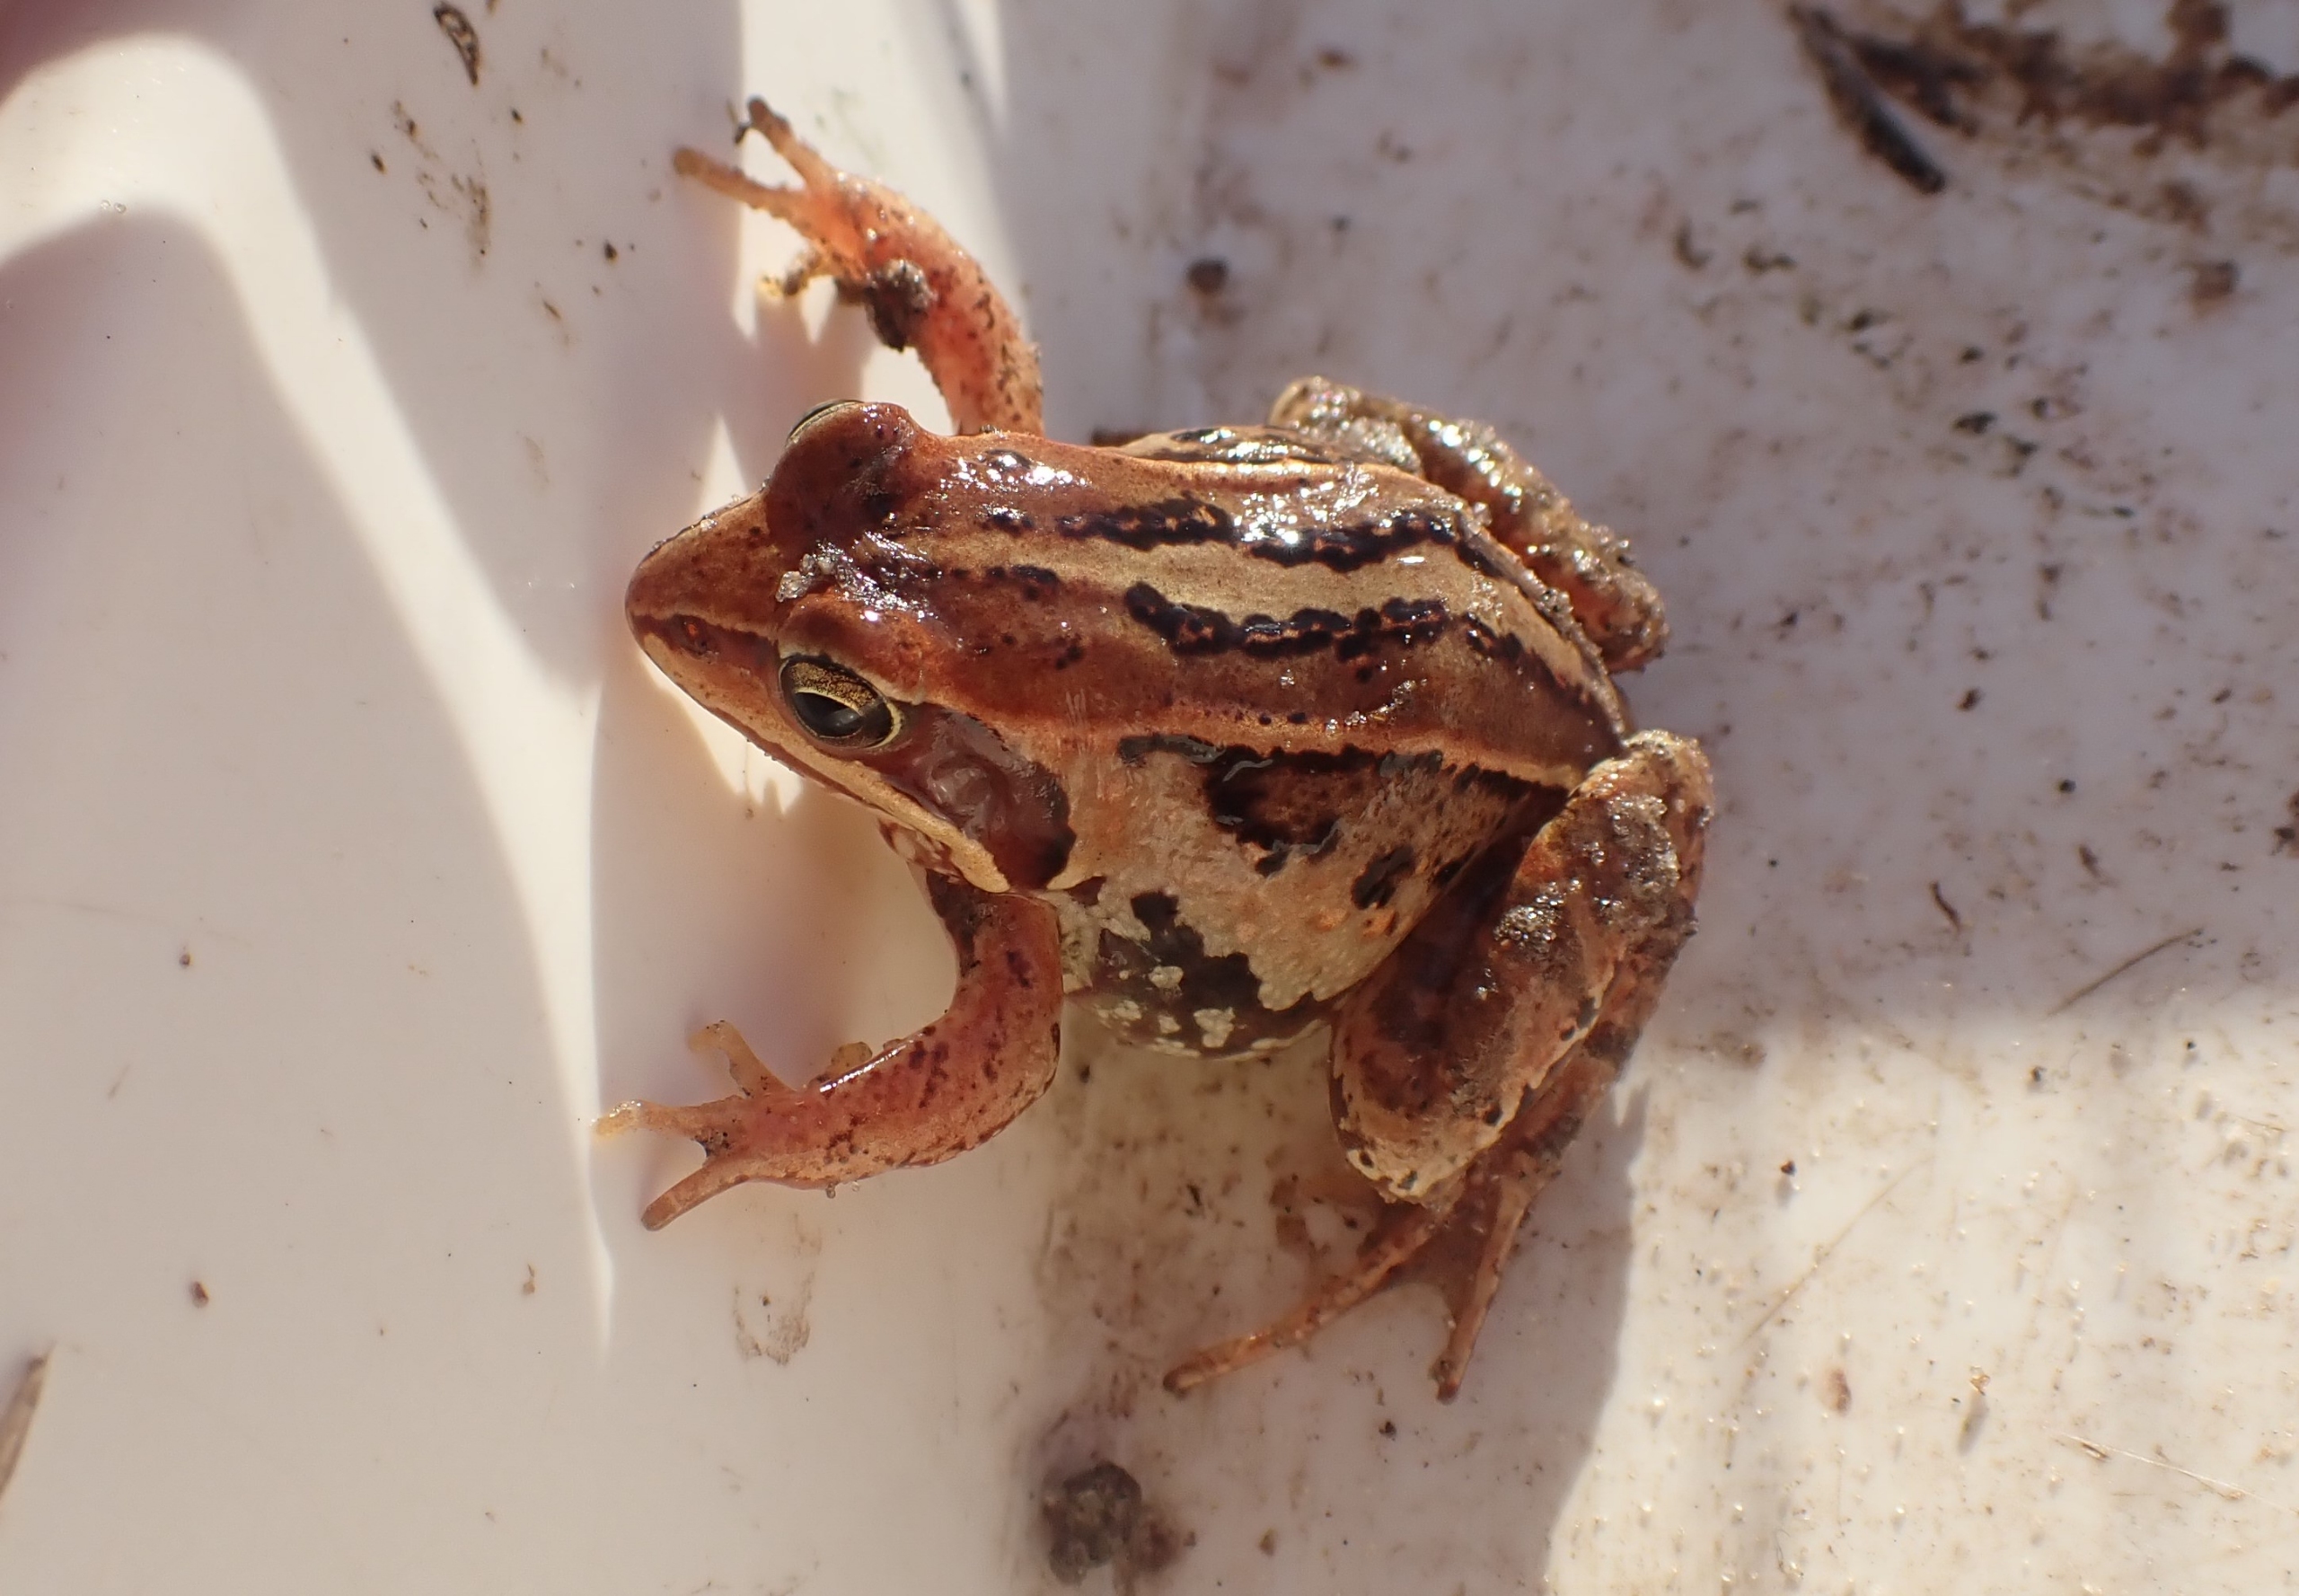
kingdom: Animalia
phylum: Chordata
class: Amphibia
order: Anura
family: Ranidae
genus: Rana
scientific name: Rana arvalis
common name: Spidssnudet frø
